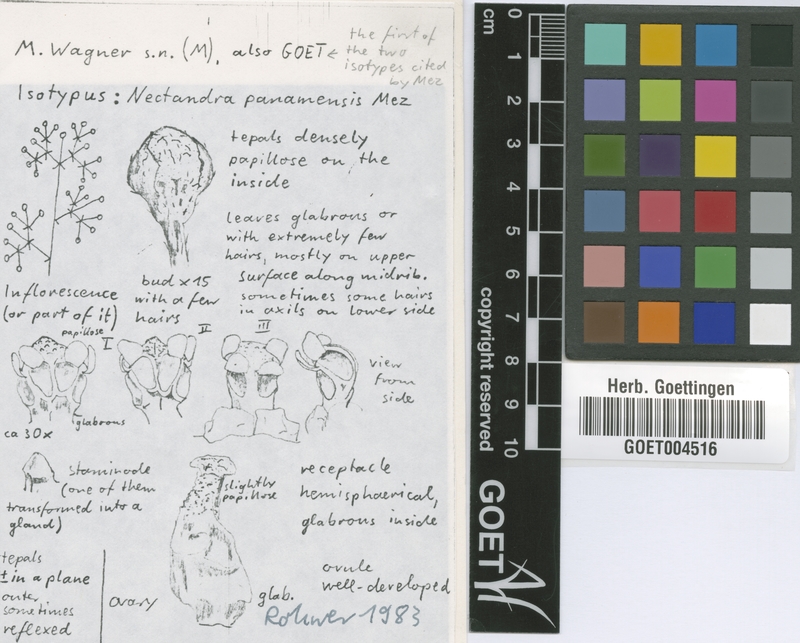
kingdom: Plantae
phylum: Tracheophyta
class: Magnoliopsida
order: Laurales
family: Lauraceae
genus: Nectandra
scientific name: Nectandra turbacensis
